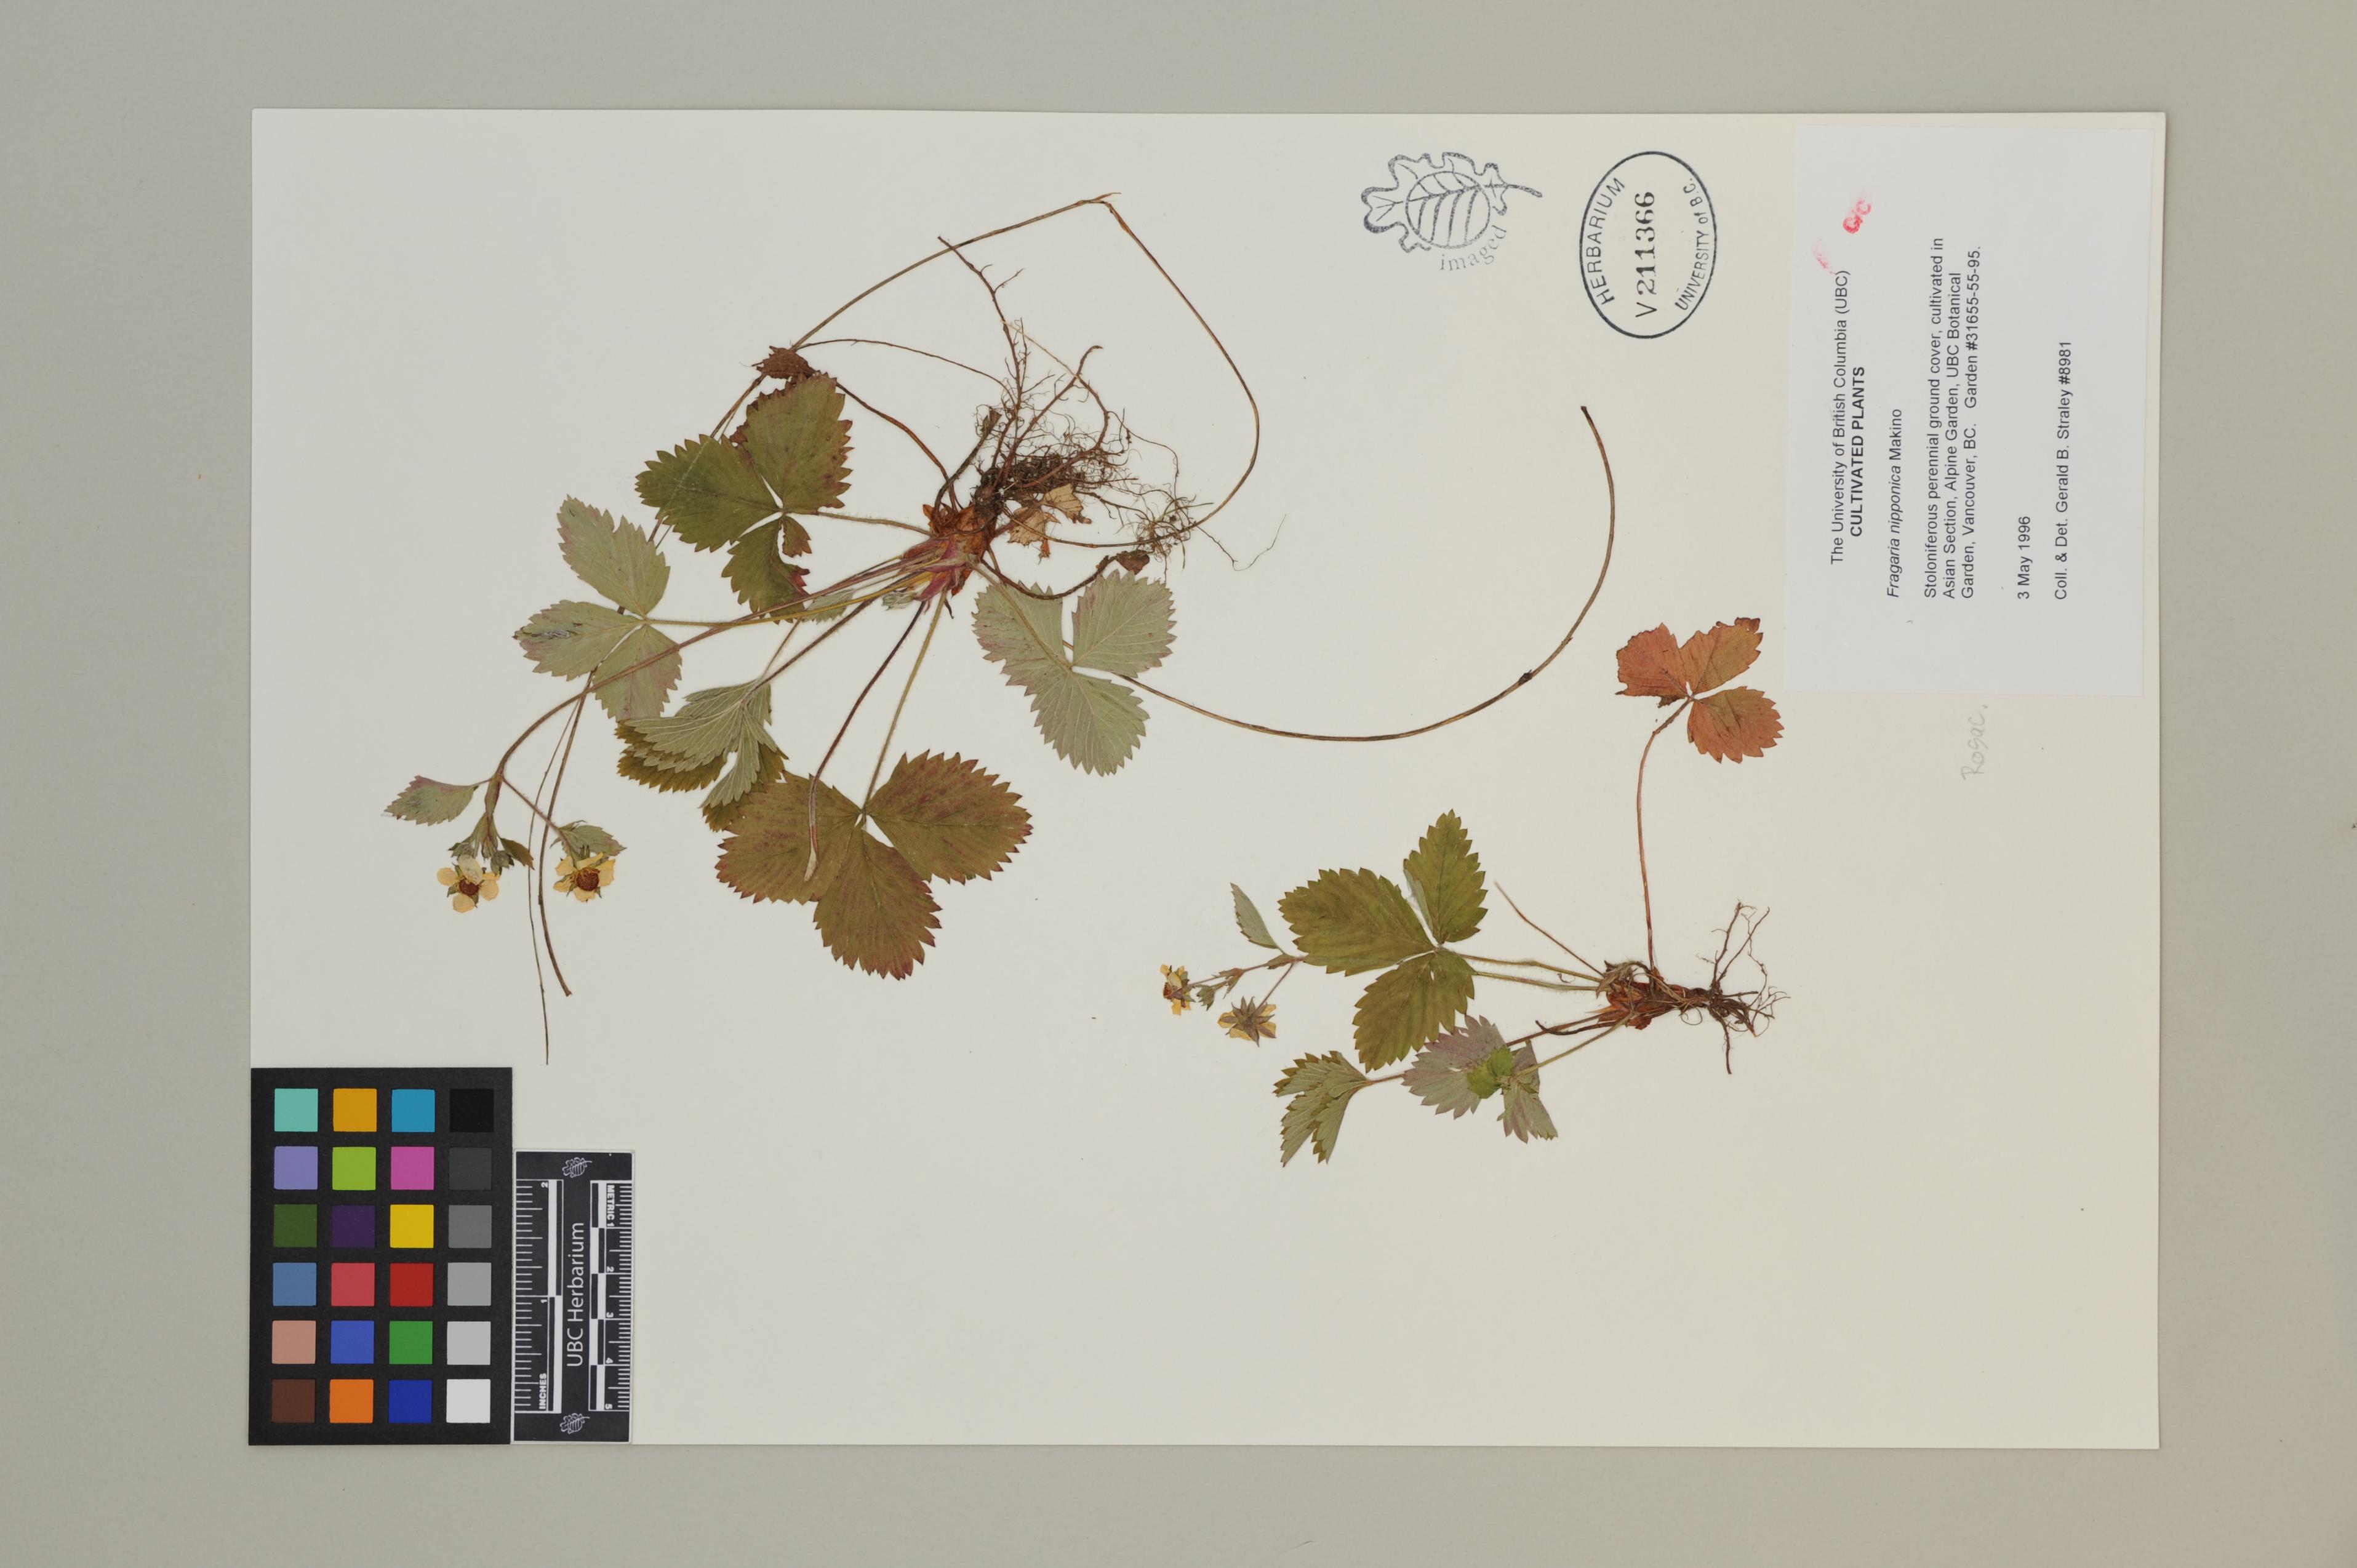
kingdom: Plantae
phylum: Tracheophyta
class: Magnoliopsida
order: Rosales
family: Rosaceae
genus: Fragaria
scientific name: Fragaria nipponica
